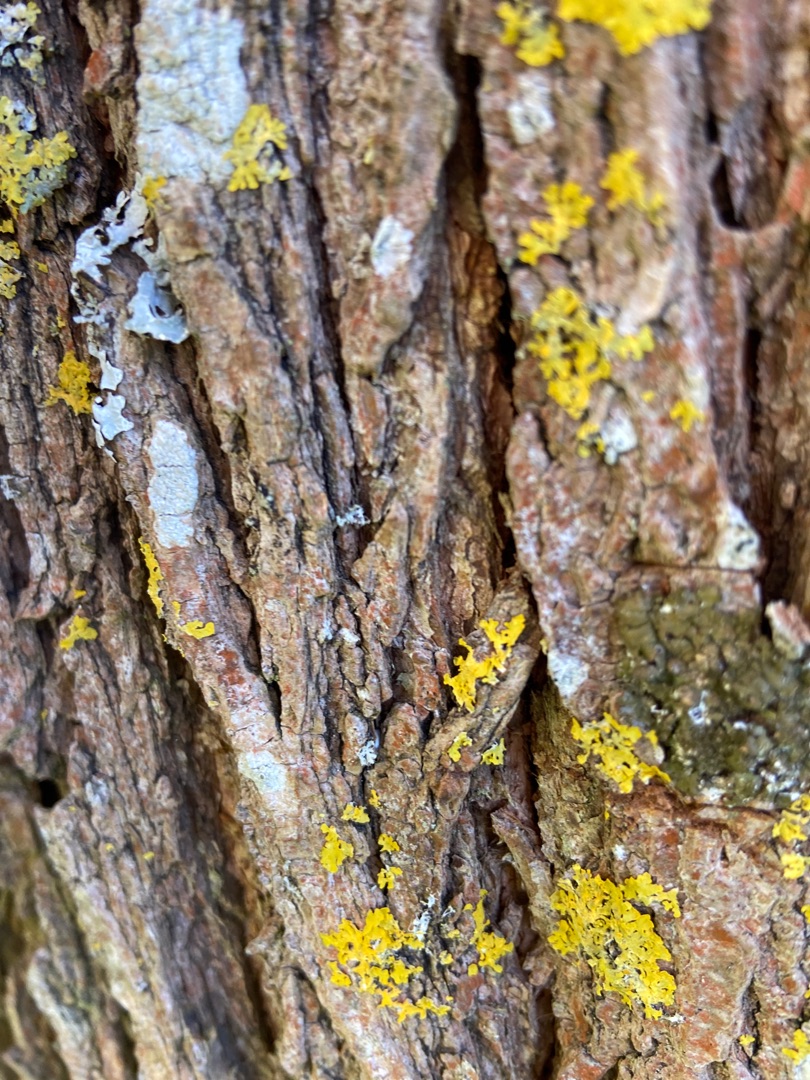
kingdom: Fungi
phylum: Ascomycota
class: Lecanoromycetes
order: Teloschistales
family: Teloschistaceae
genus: Xanthoria
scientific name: Xanthoria parietina
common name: Almindelig væggelav
